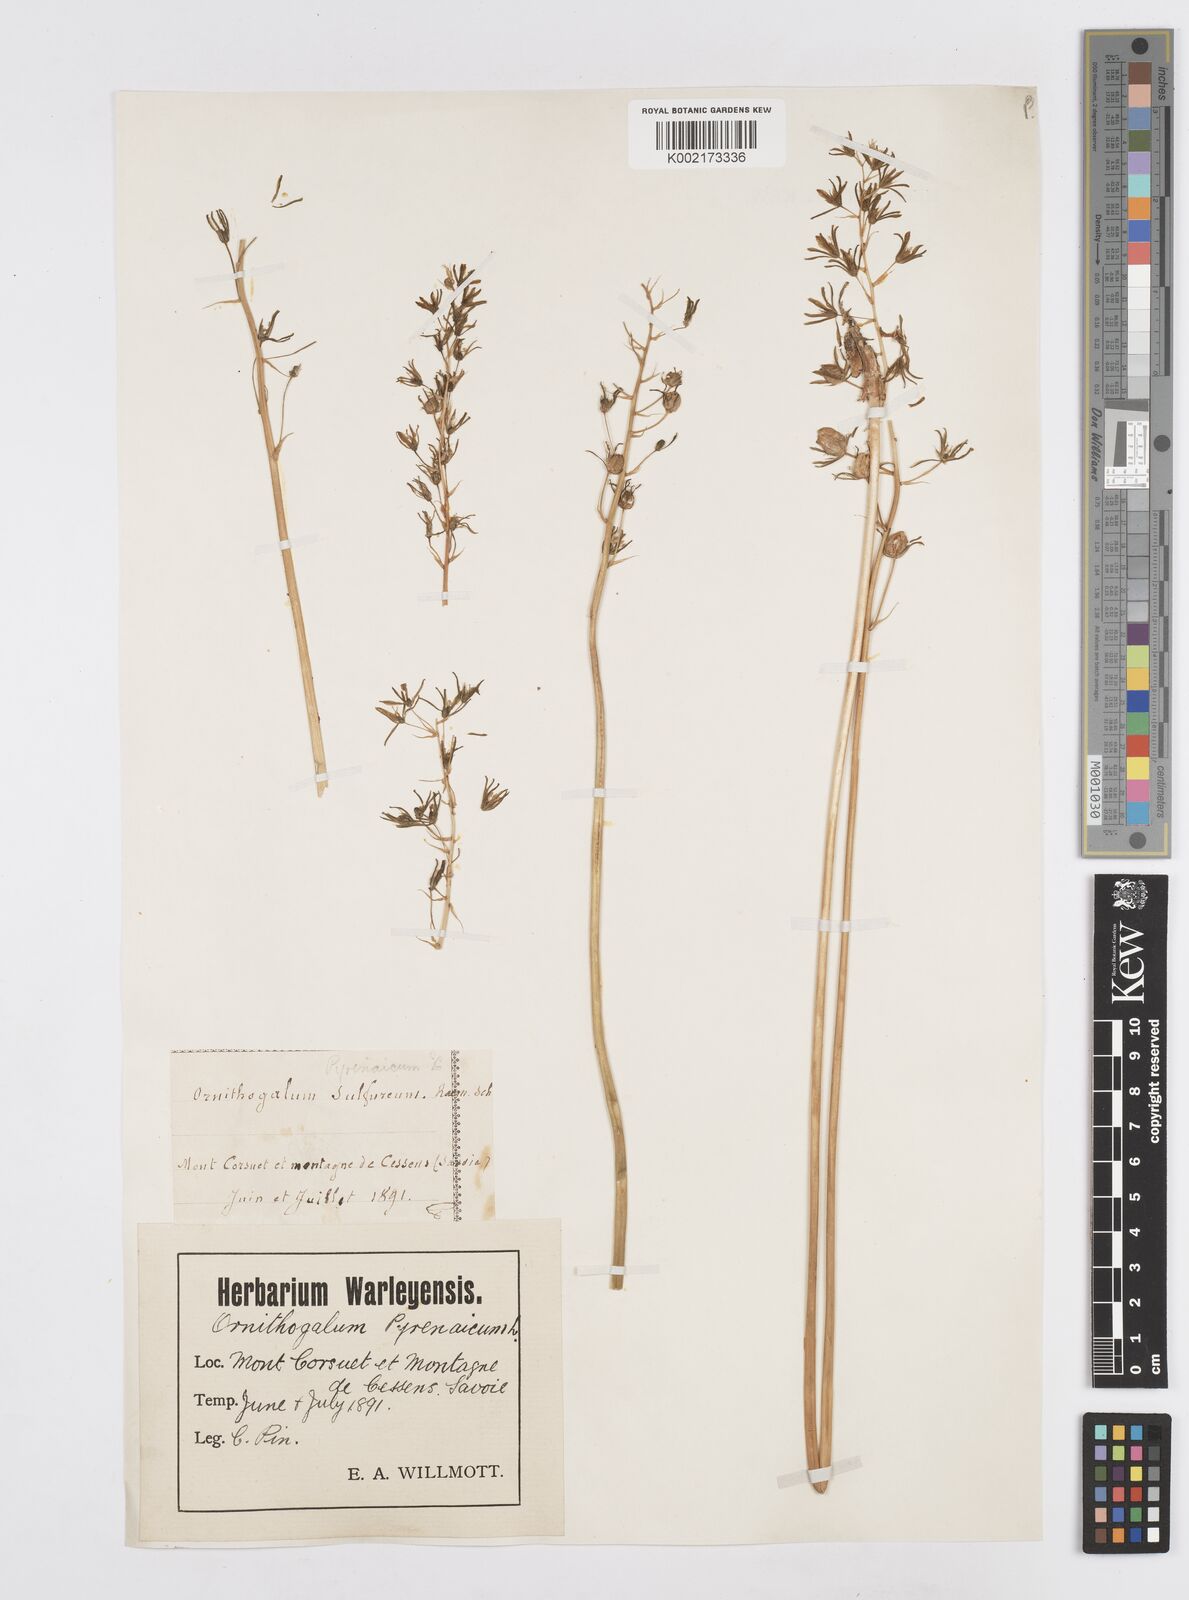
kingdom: Plantae
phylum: Tracheophyta
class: Liliopsida
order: Asparagales
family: Asparagaceae
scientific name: Asparagaceae
